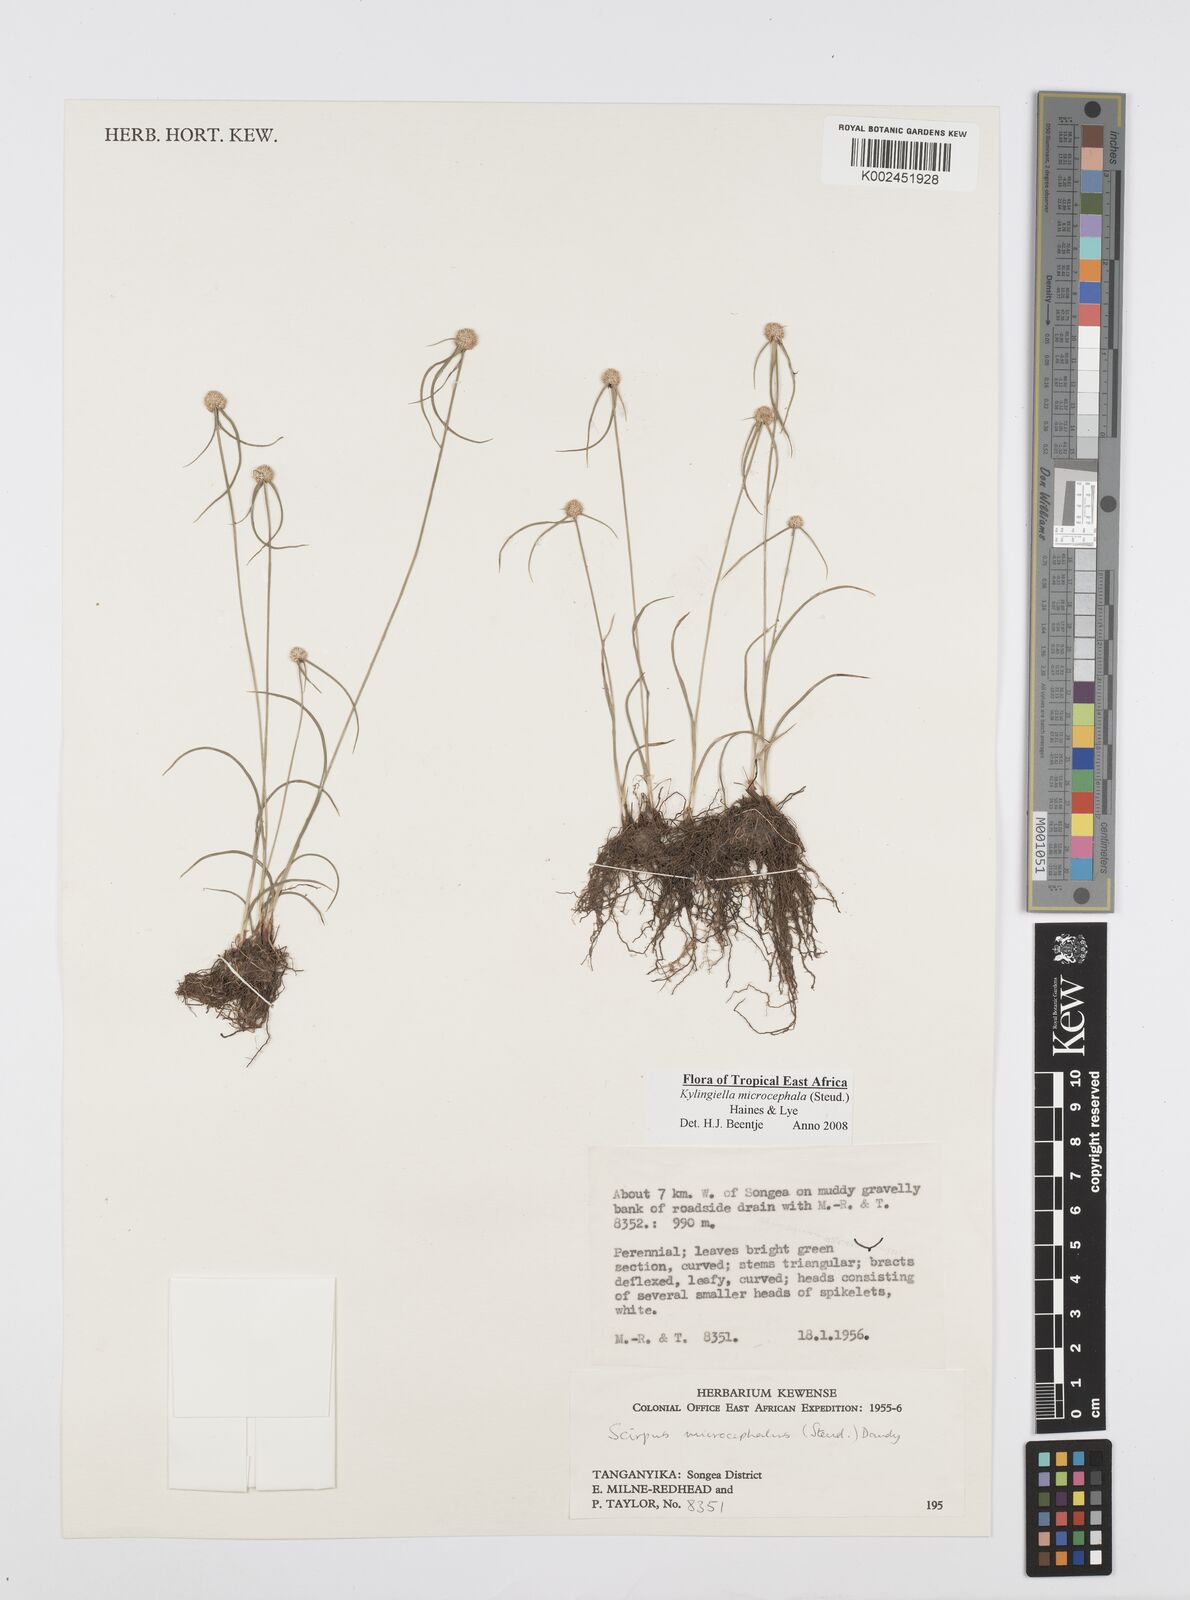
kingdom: Plantae
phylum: Tracheophyta
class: Liliopsida
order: Poales
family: Cyperaceae
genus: Cyperus
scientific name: Cyperus microcephalus
